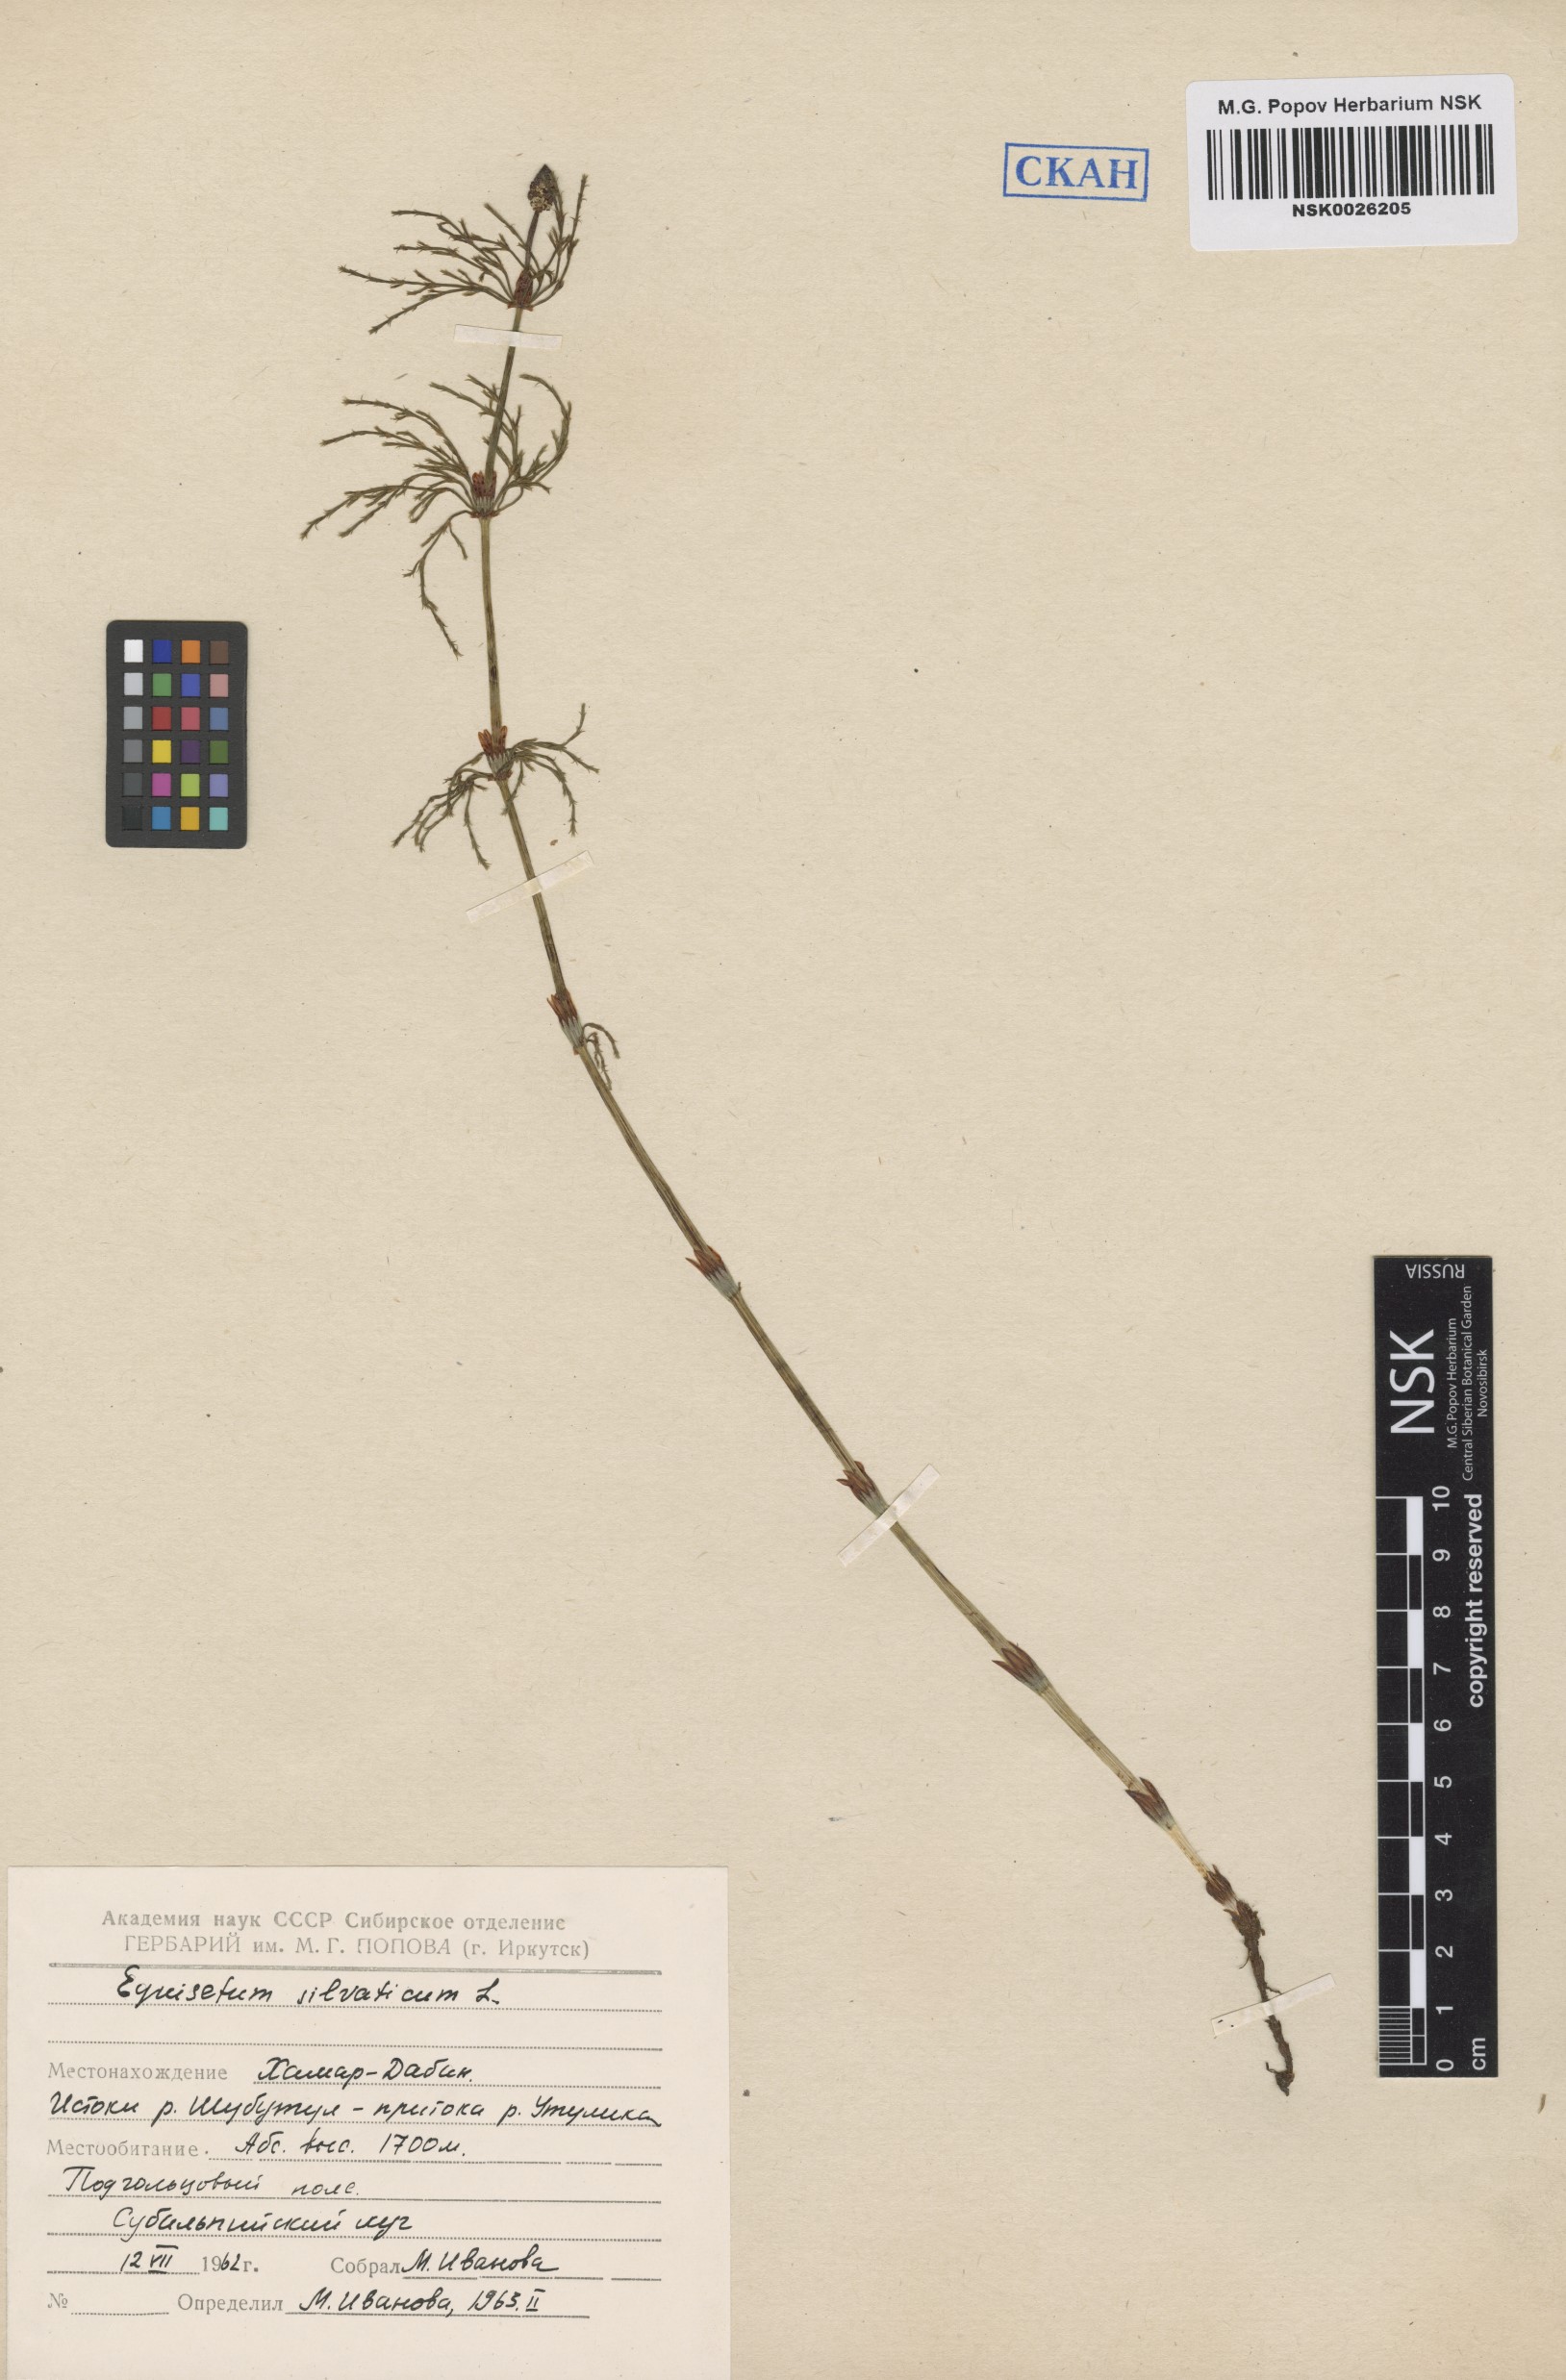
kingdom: Plantae
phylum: Tracheophyta
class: Polypodiopsida
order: Equisetales
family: Equisetaceae
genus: Equisetum
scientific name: Equisetum sylvaticum
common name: Wood horsetail
